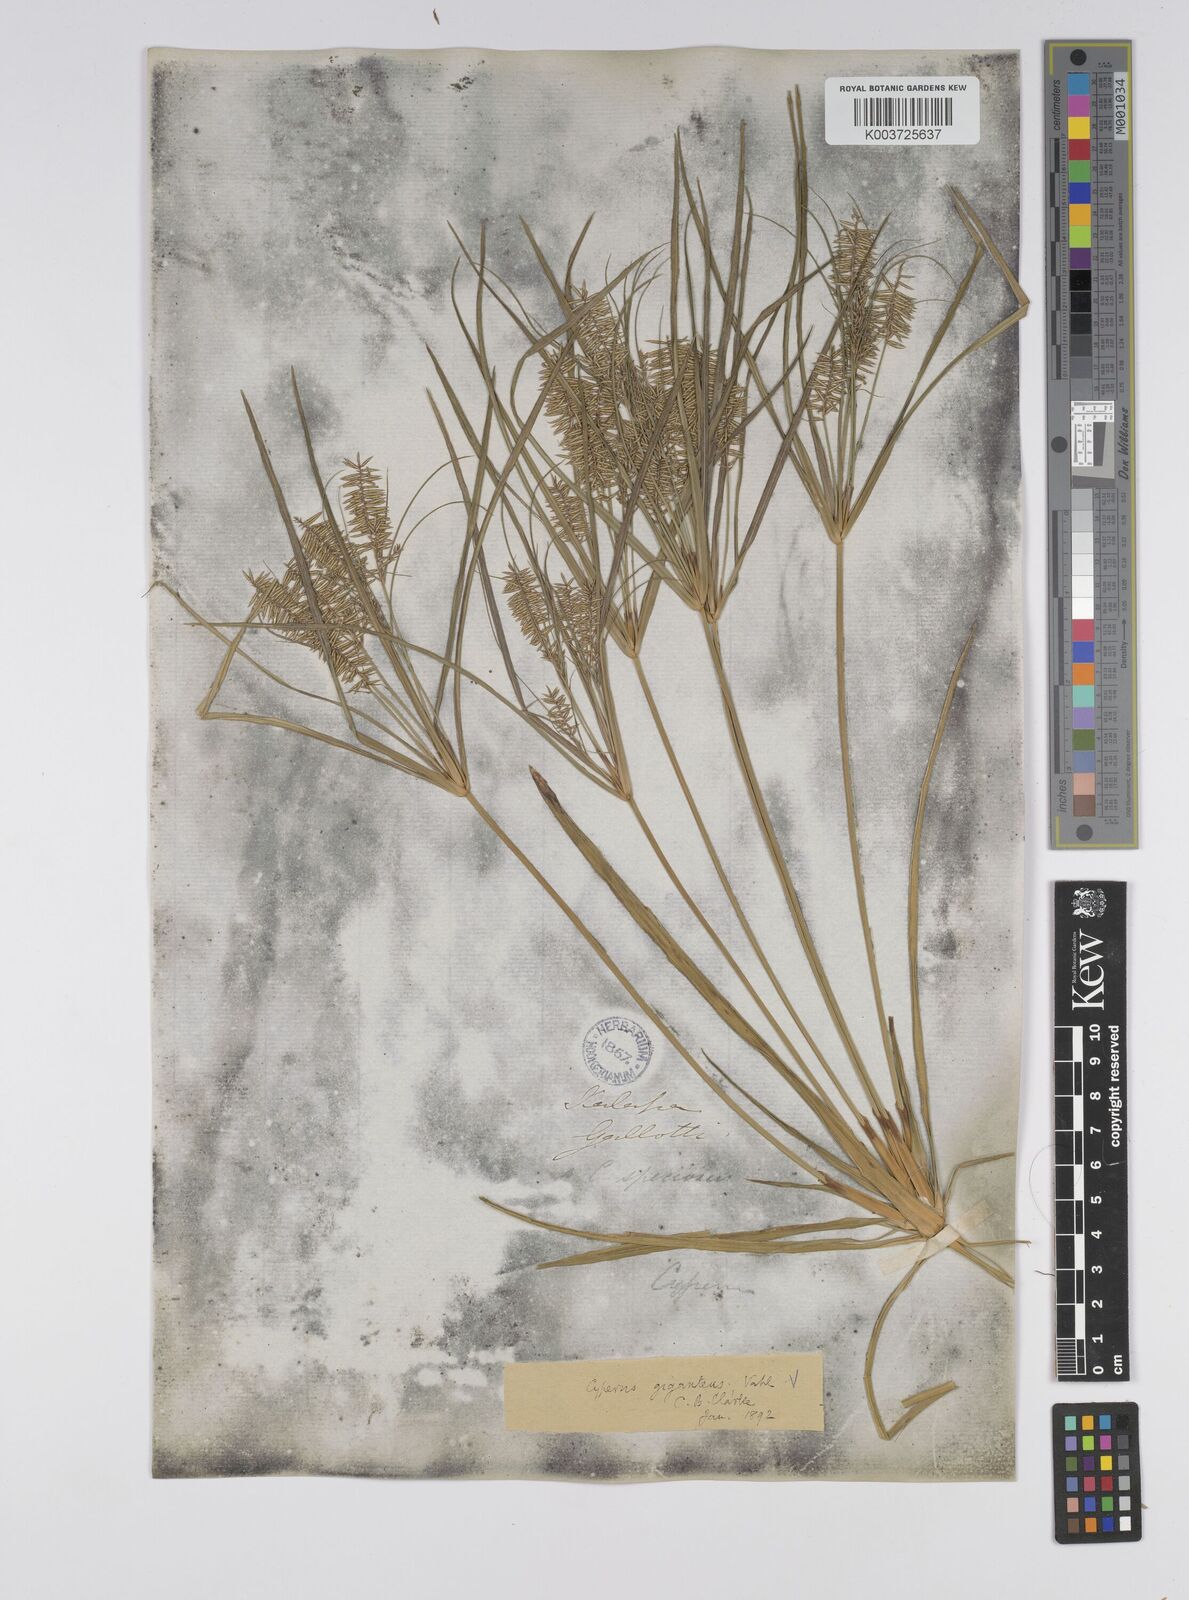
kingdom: Plantae
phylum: Tracheophyta
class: Liliopsida
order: Poales
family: Cyperaceae
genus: Cyperus
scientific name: Cyperus giganteus
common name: Giant flat sedge
